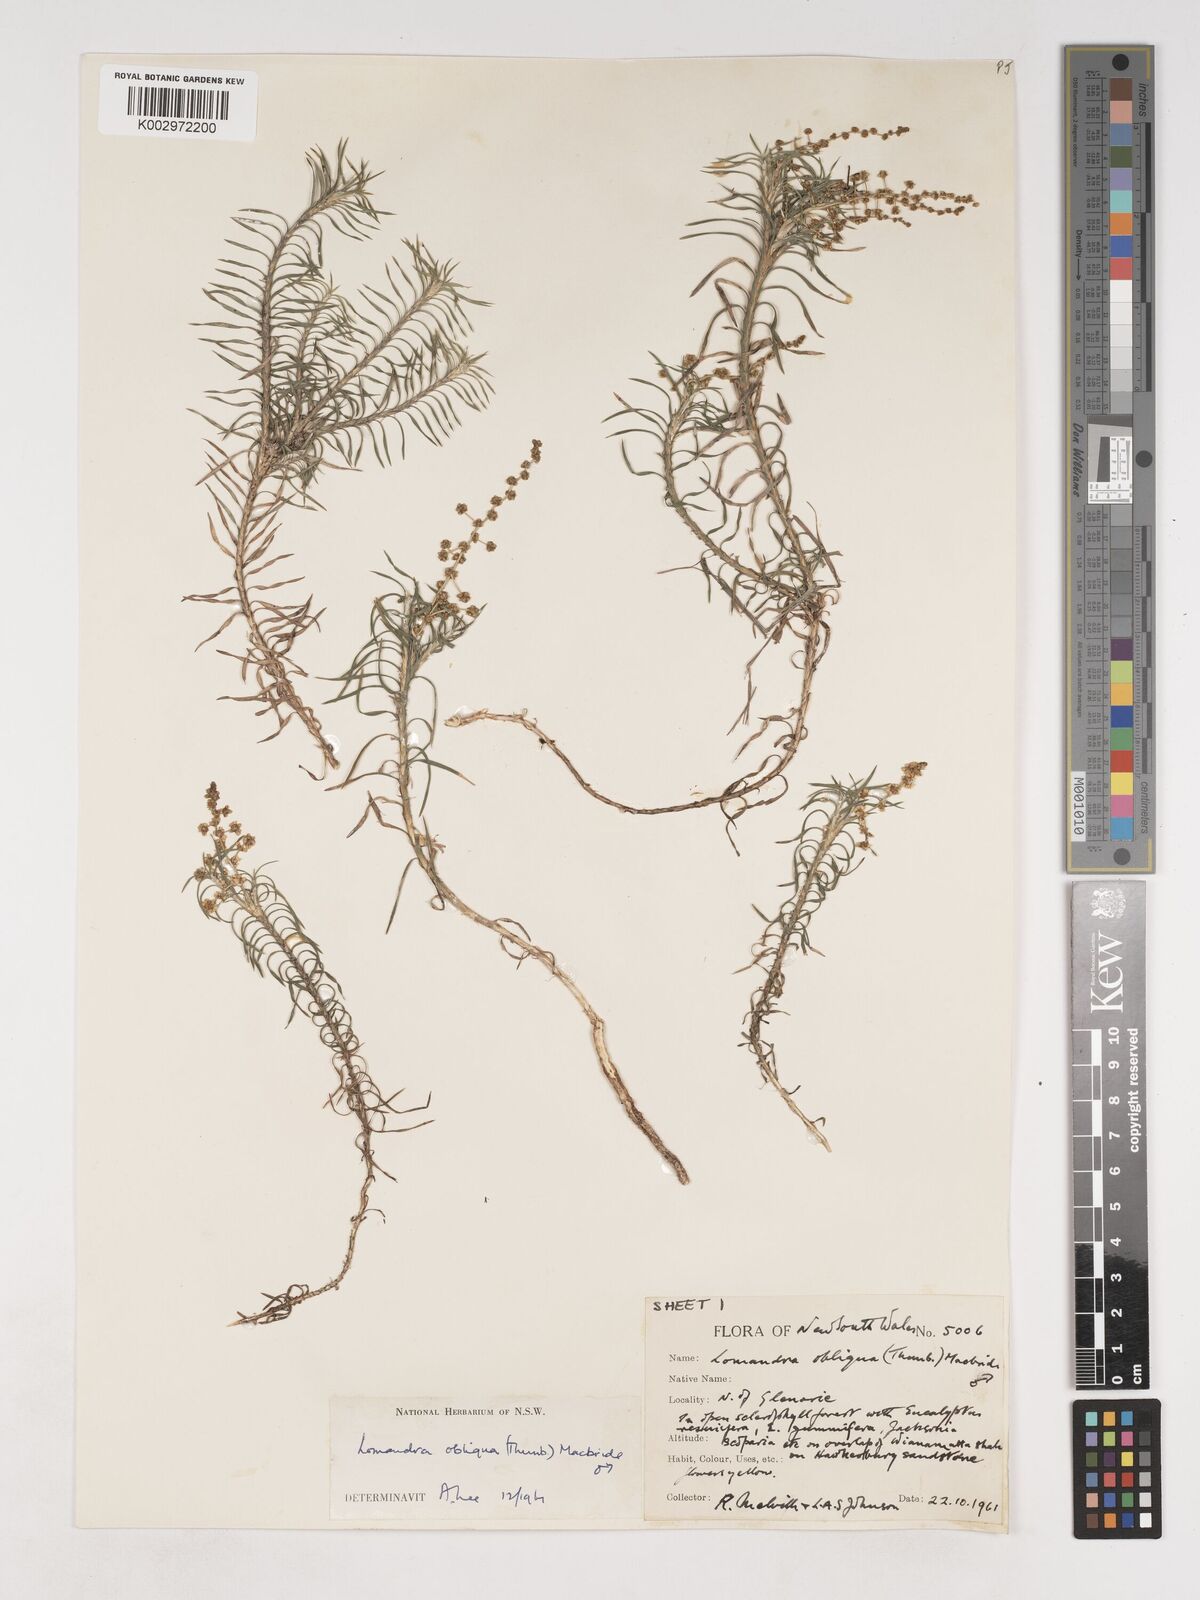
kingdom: Plantae
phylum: Tracheophyta
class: Liliopsida
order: Asparagales
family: Asparagaceae
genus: Lomandra
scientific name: Lomandra obliqua
